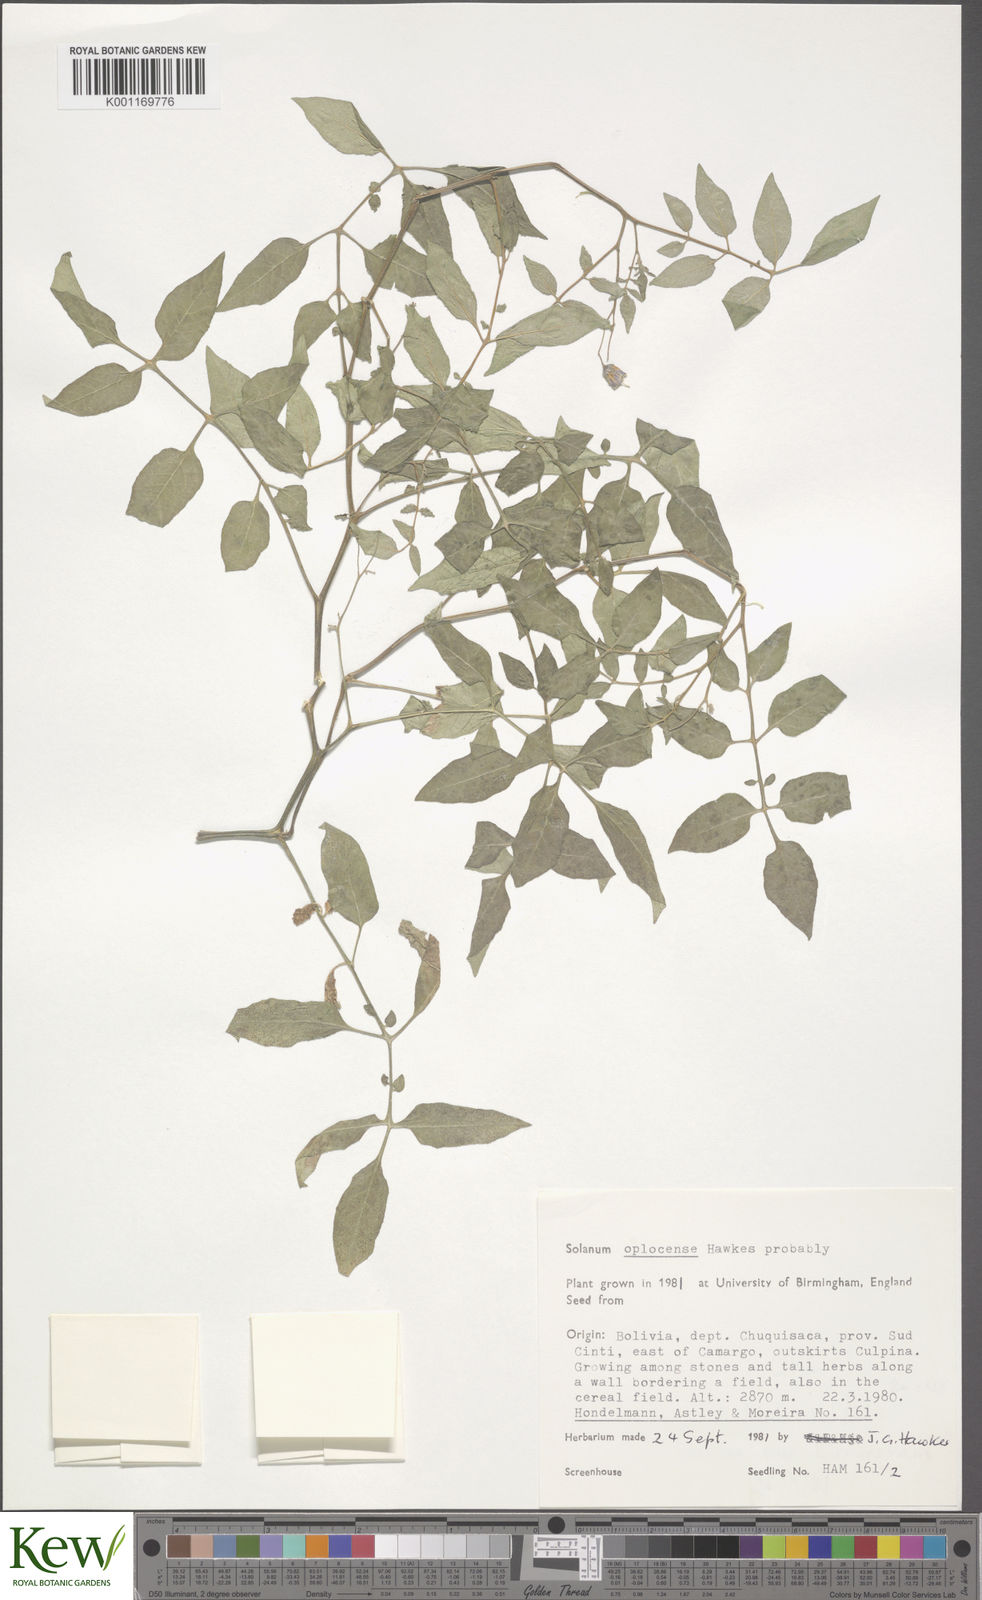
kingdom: Plantae
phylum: Tracheophyta
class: Magnoliopsida
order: Solanales
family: Solanaceae
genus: Solanum
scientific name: Solanum brevicaule
